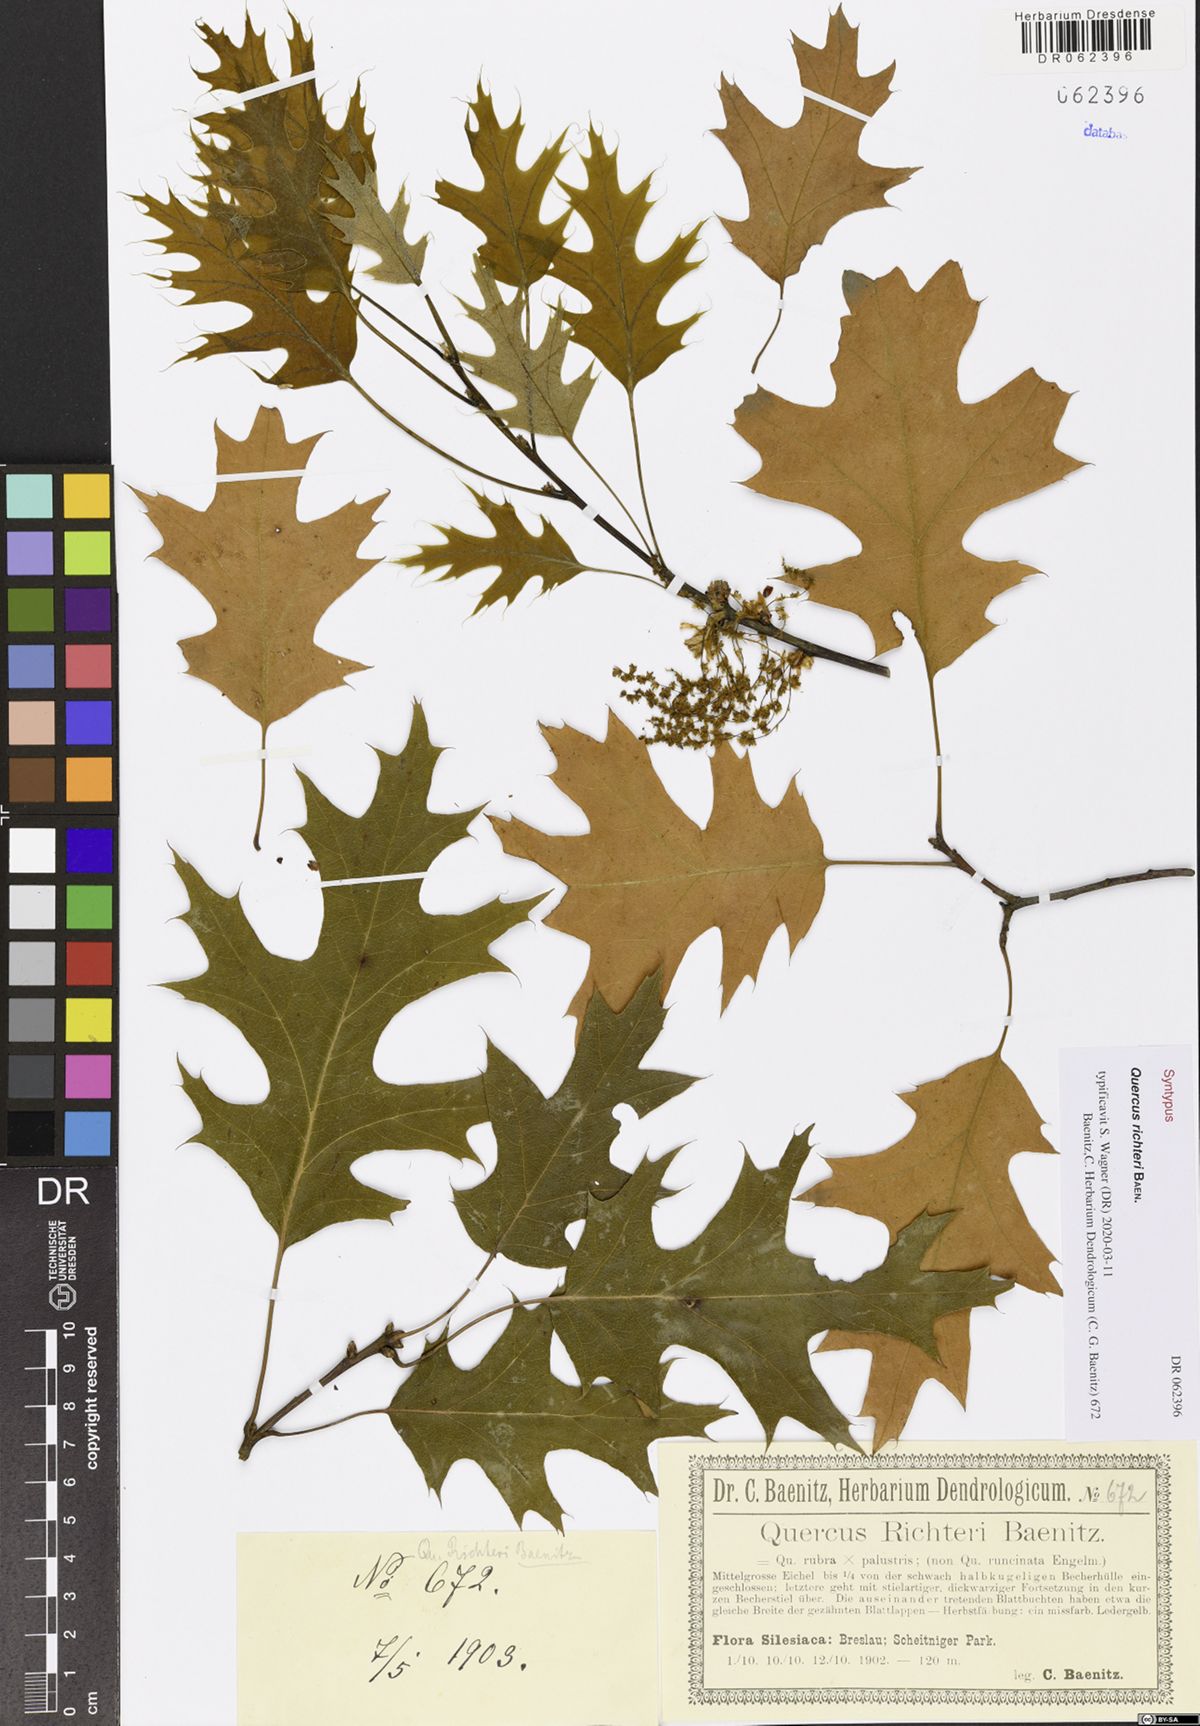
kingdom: Plantae
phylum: Tracheophyta
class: Magnoliopsida
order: Fagales
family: Fagaceae
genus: Quercus
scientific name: Quercus richteri
